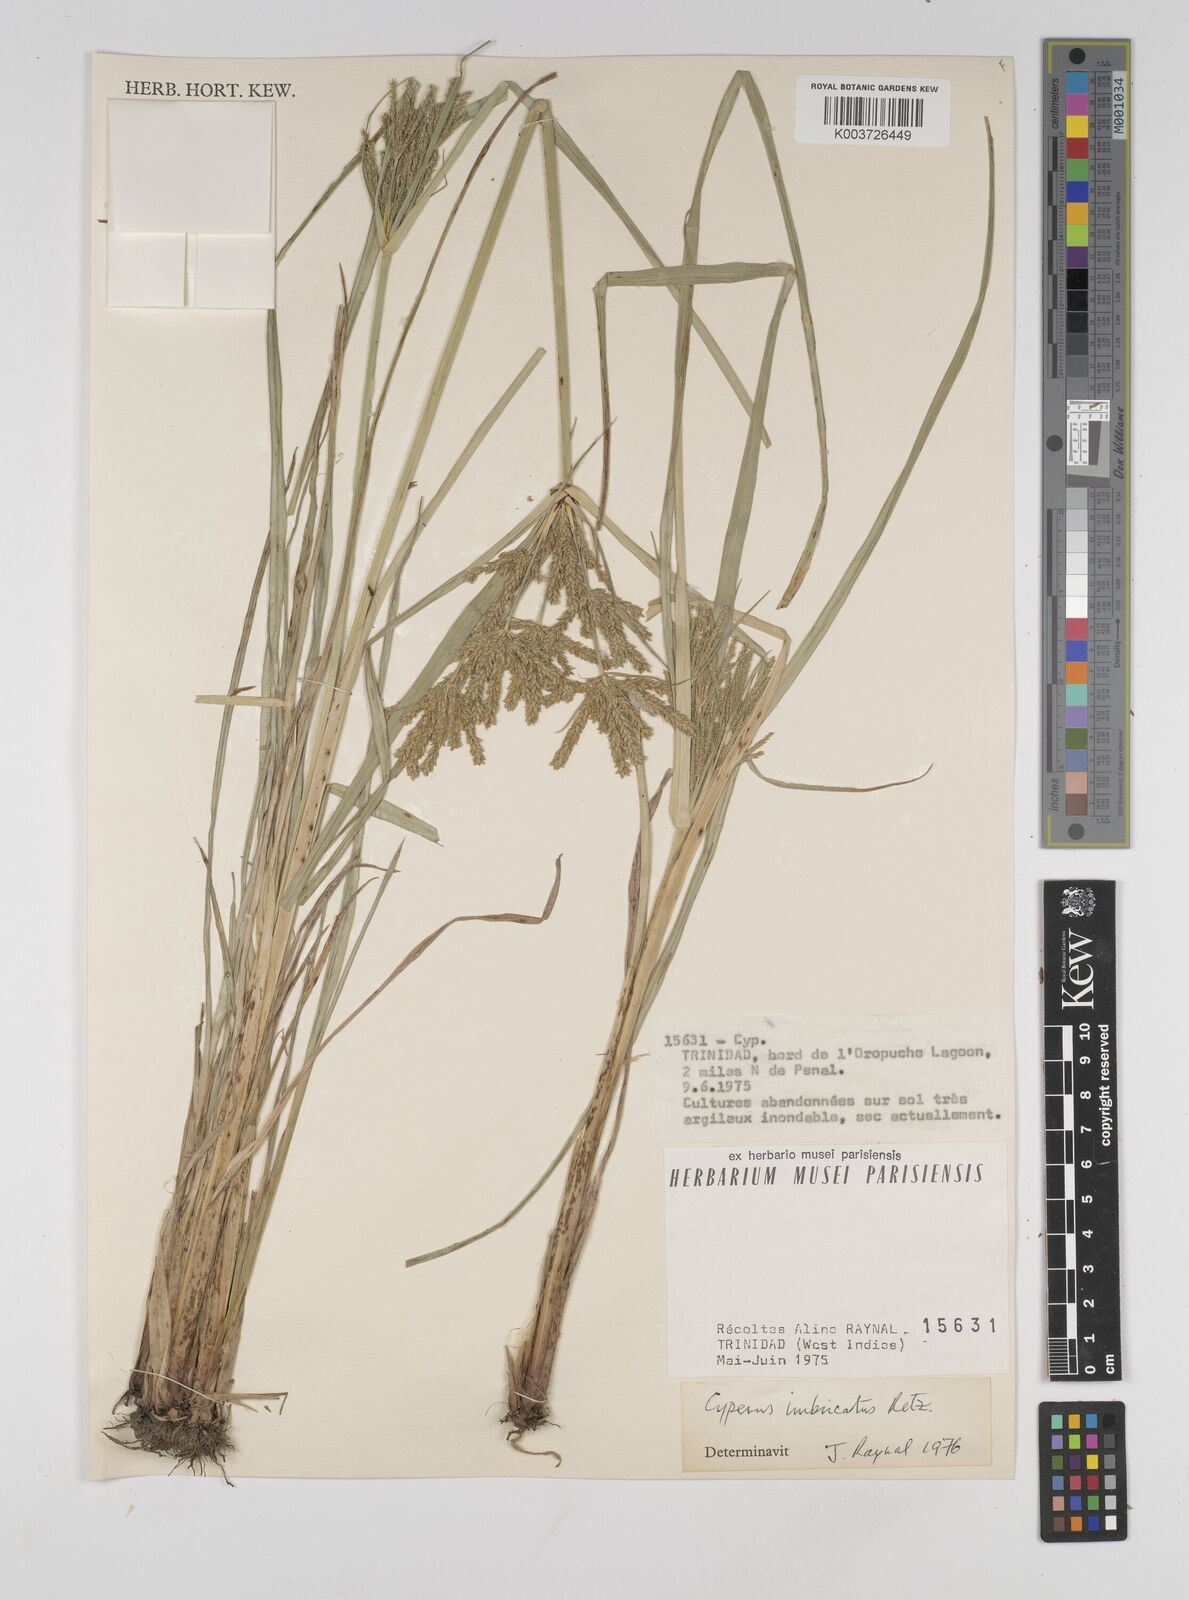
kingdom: Plantae
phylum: Tracheophyta
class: Liliopsida
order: Poales
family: Cyperaceae
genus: Cyperus
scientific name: Cyperus imbricatus
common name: Shingle flatsedge
